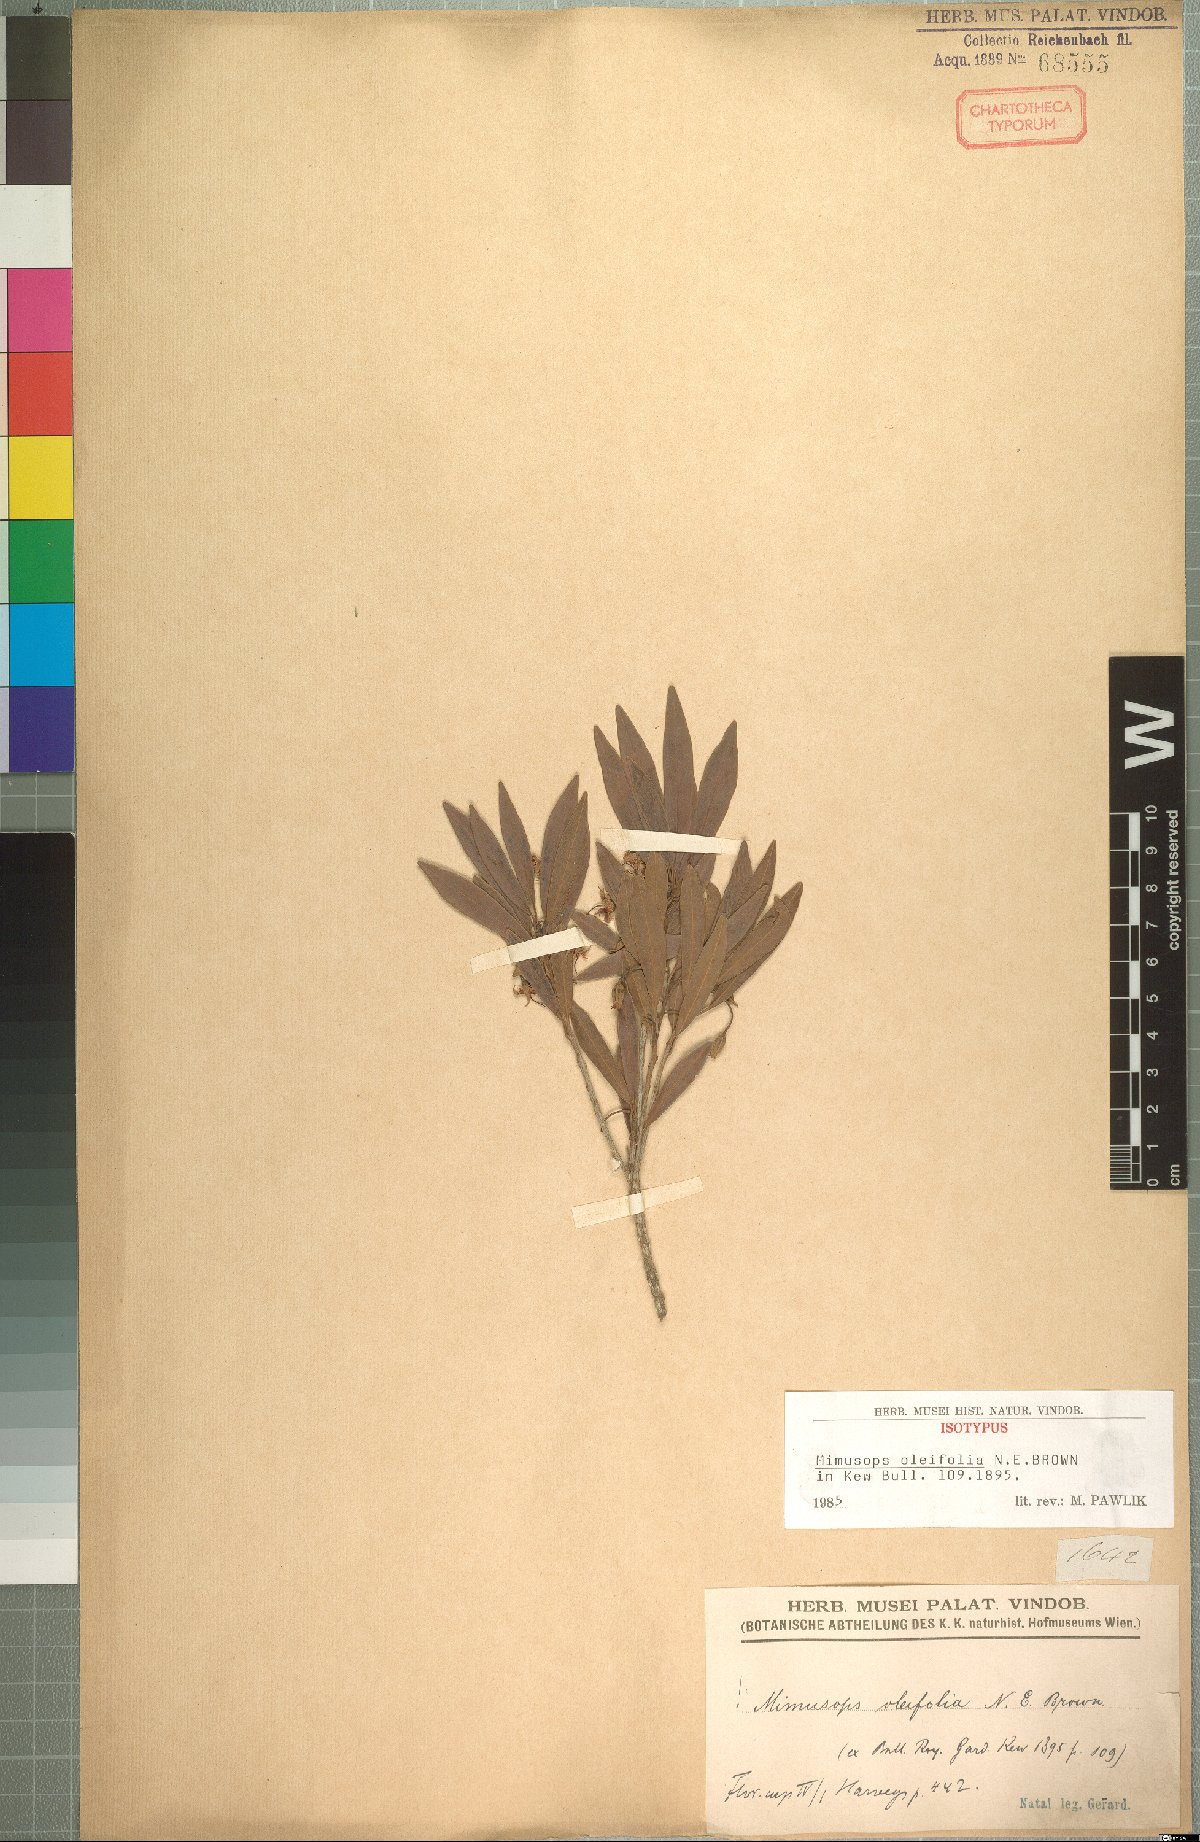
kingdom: Plantae
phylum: Tracheophyta
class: Magnoliopsida
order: Ericales
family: Sapotaceae
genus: Mimusops
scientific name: Mimusops obovata
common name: Red milkwood
